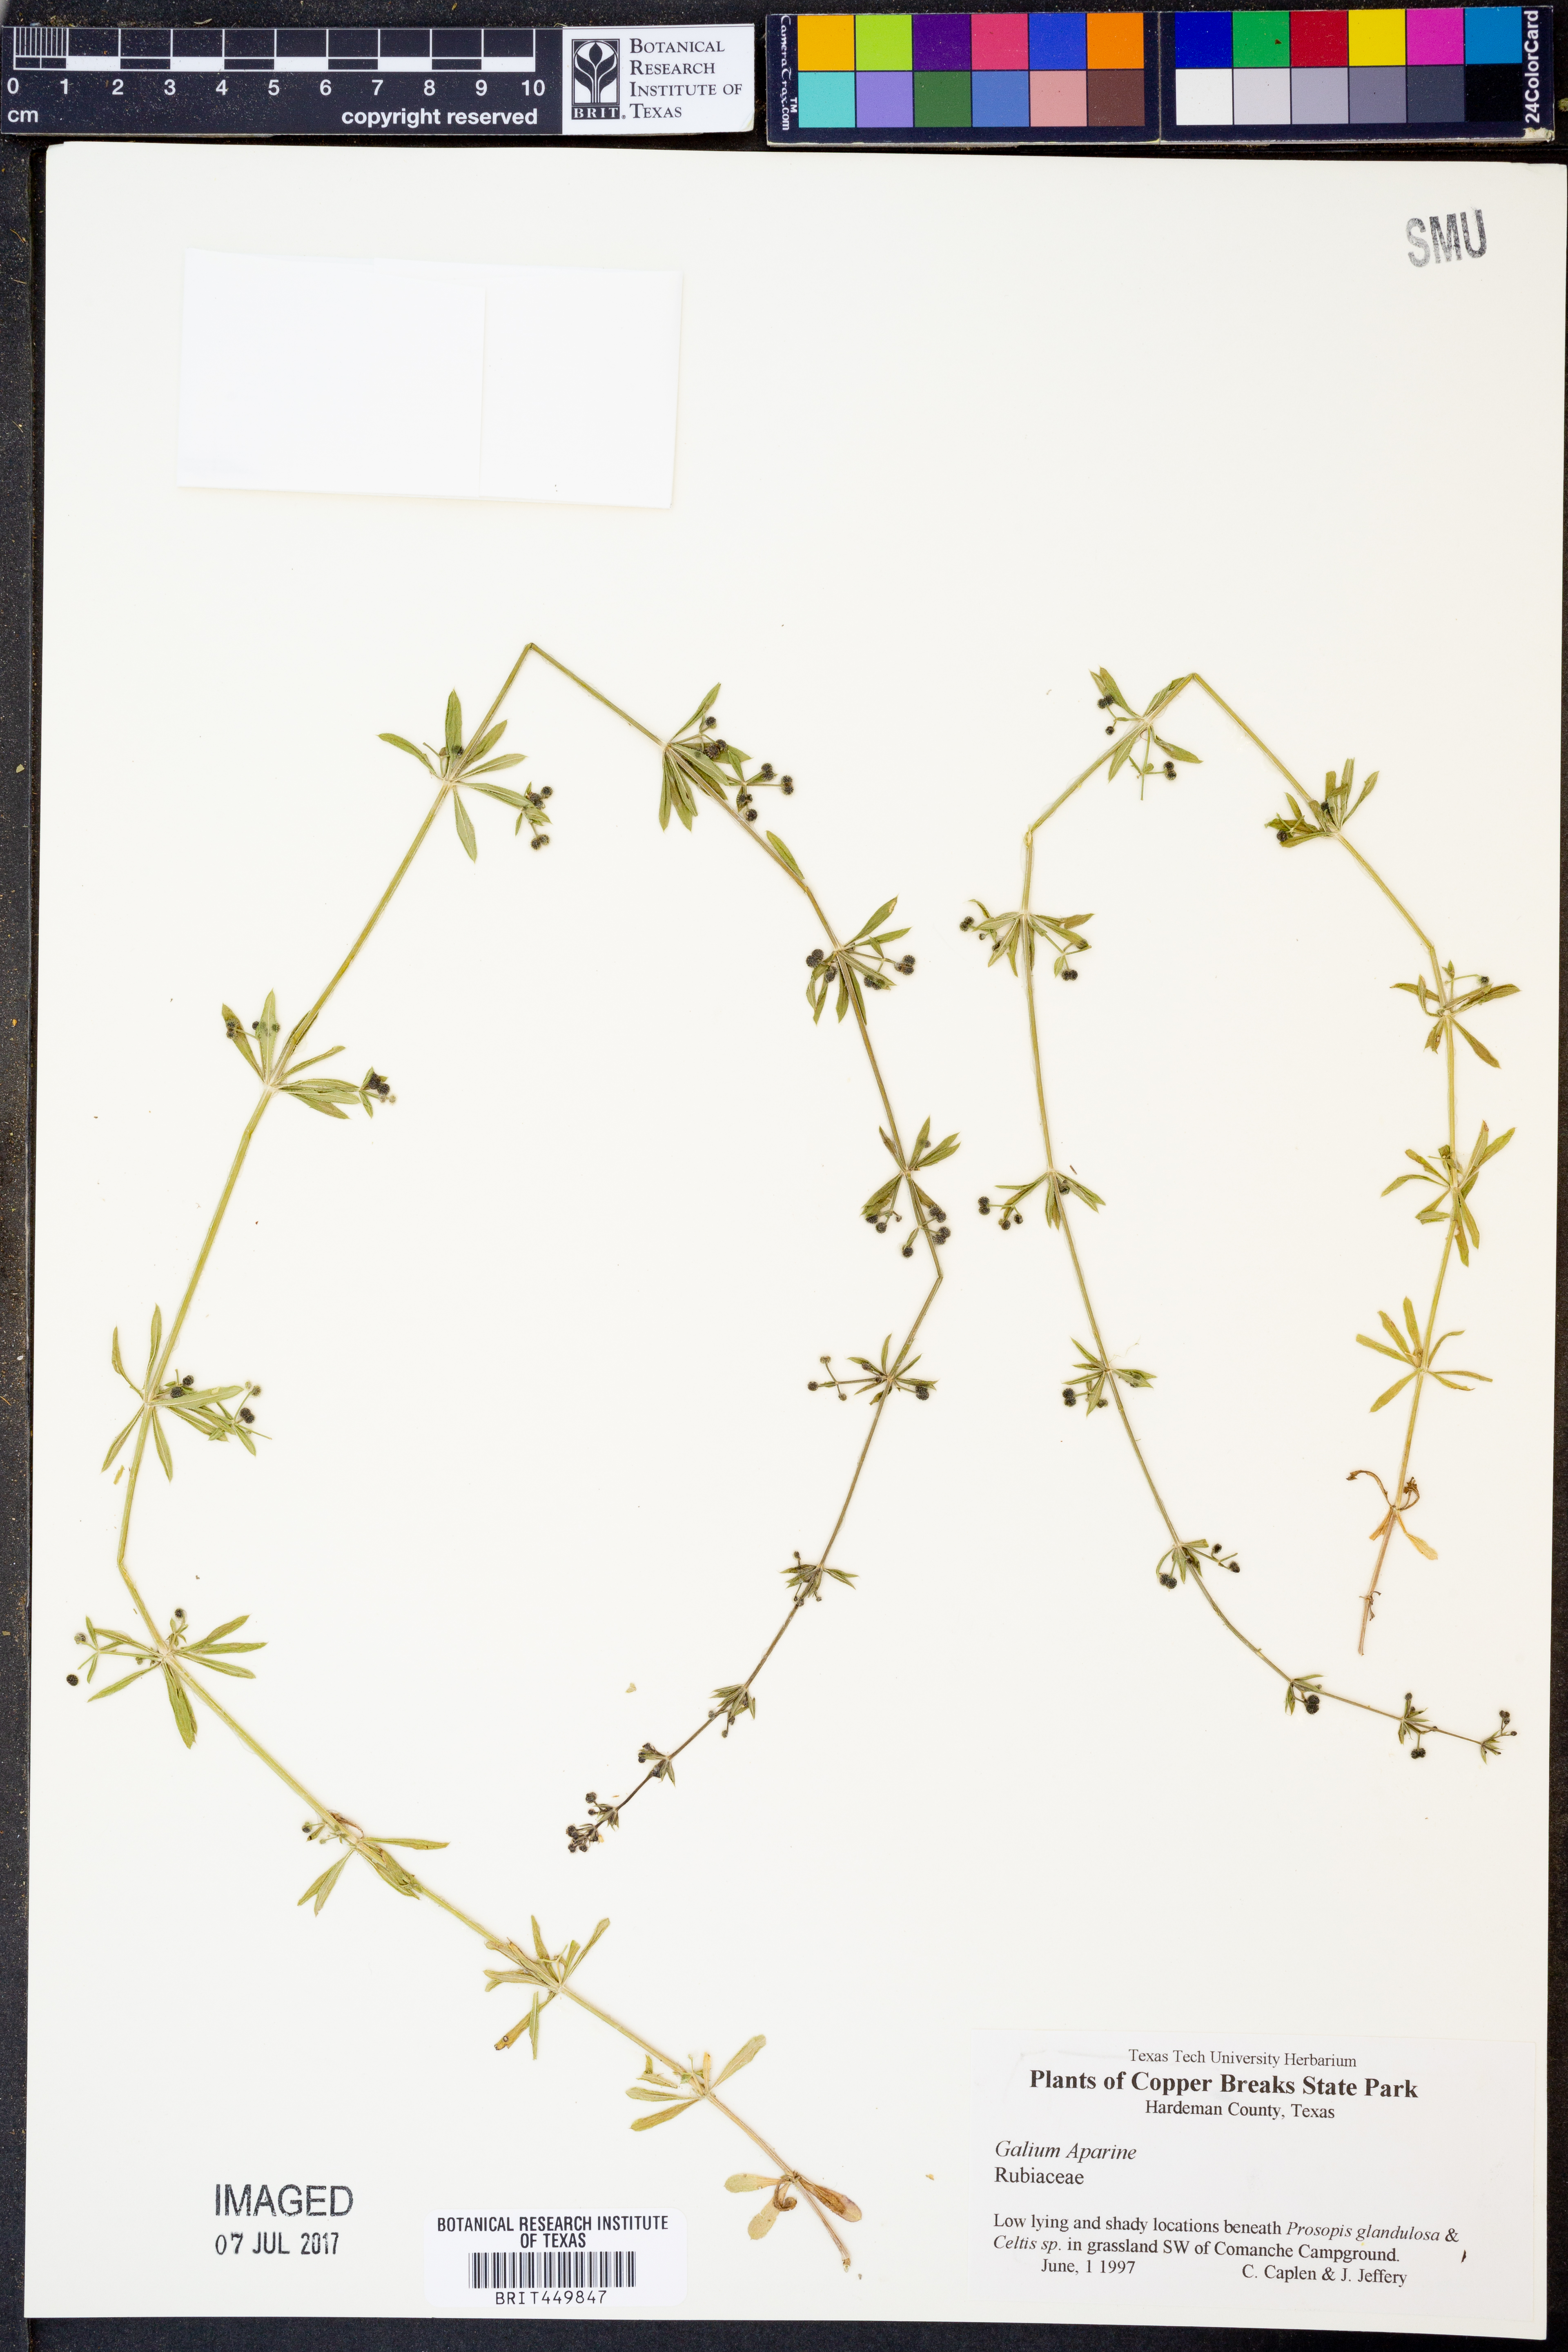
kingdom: Plantae
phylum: Tracheophyta
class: Magnoliopsida
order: Gentianales
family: Rubiaceae
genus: Galium
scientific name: Galium aparine
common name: Cleavers
